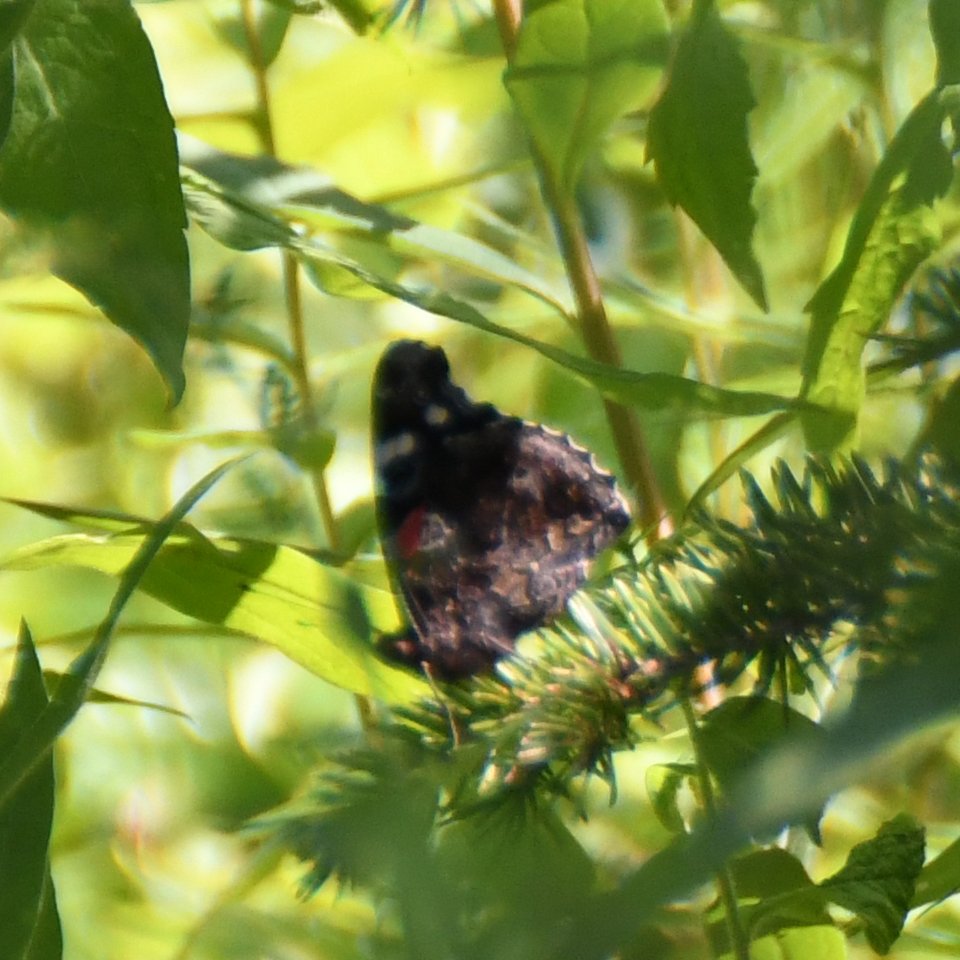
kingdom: Animalia
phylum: Arthropoda
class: Insecta
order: Lepidoptera
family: Nymphalidae
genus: Vanessa
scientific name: Vanessa atalanta
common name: Red Admiral
